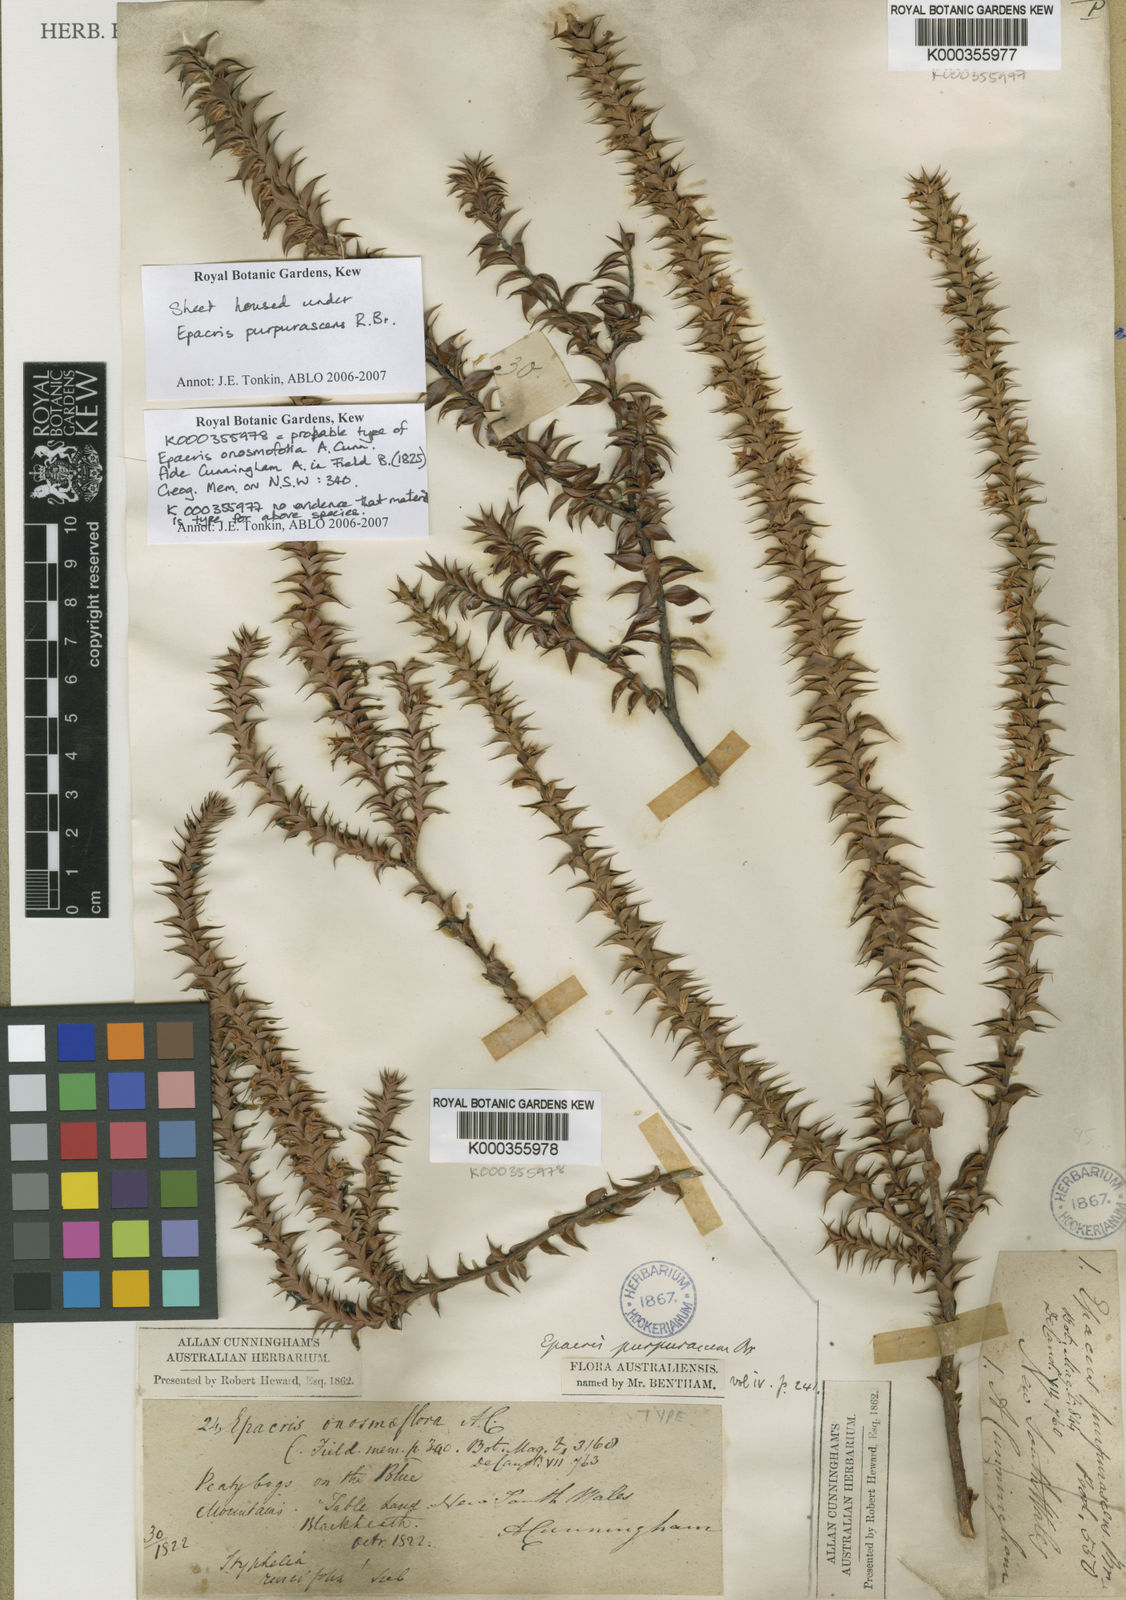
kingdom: Plantae
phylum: Tracheophyta
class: Magnoliopsida
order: Ericales
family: Ericaceae
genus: Epacris
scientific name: Epacris
